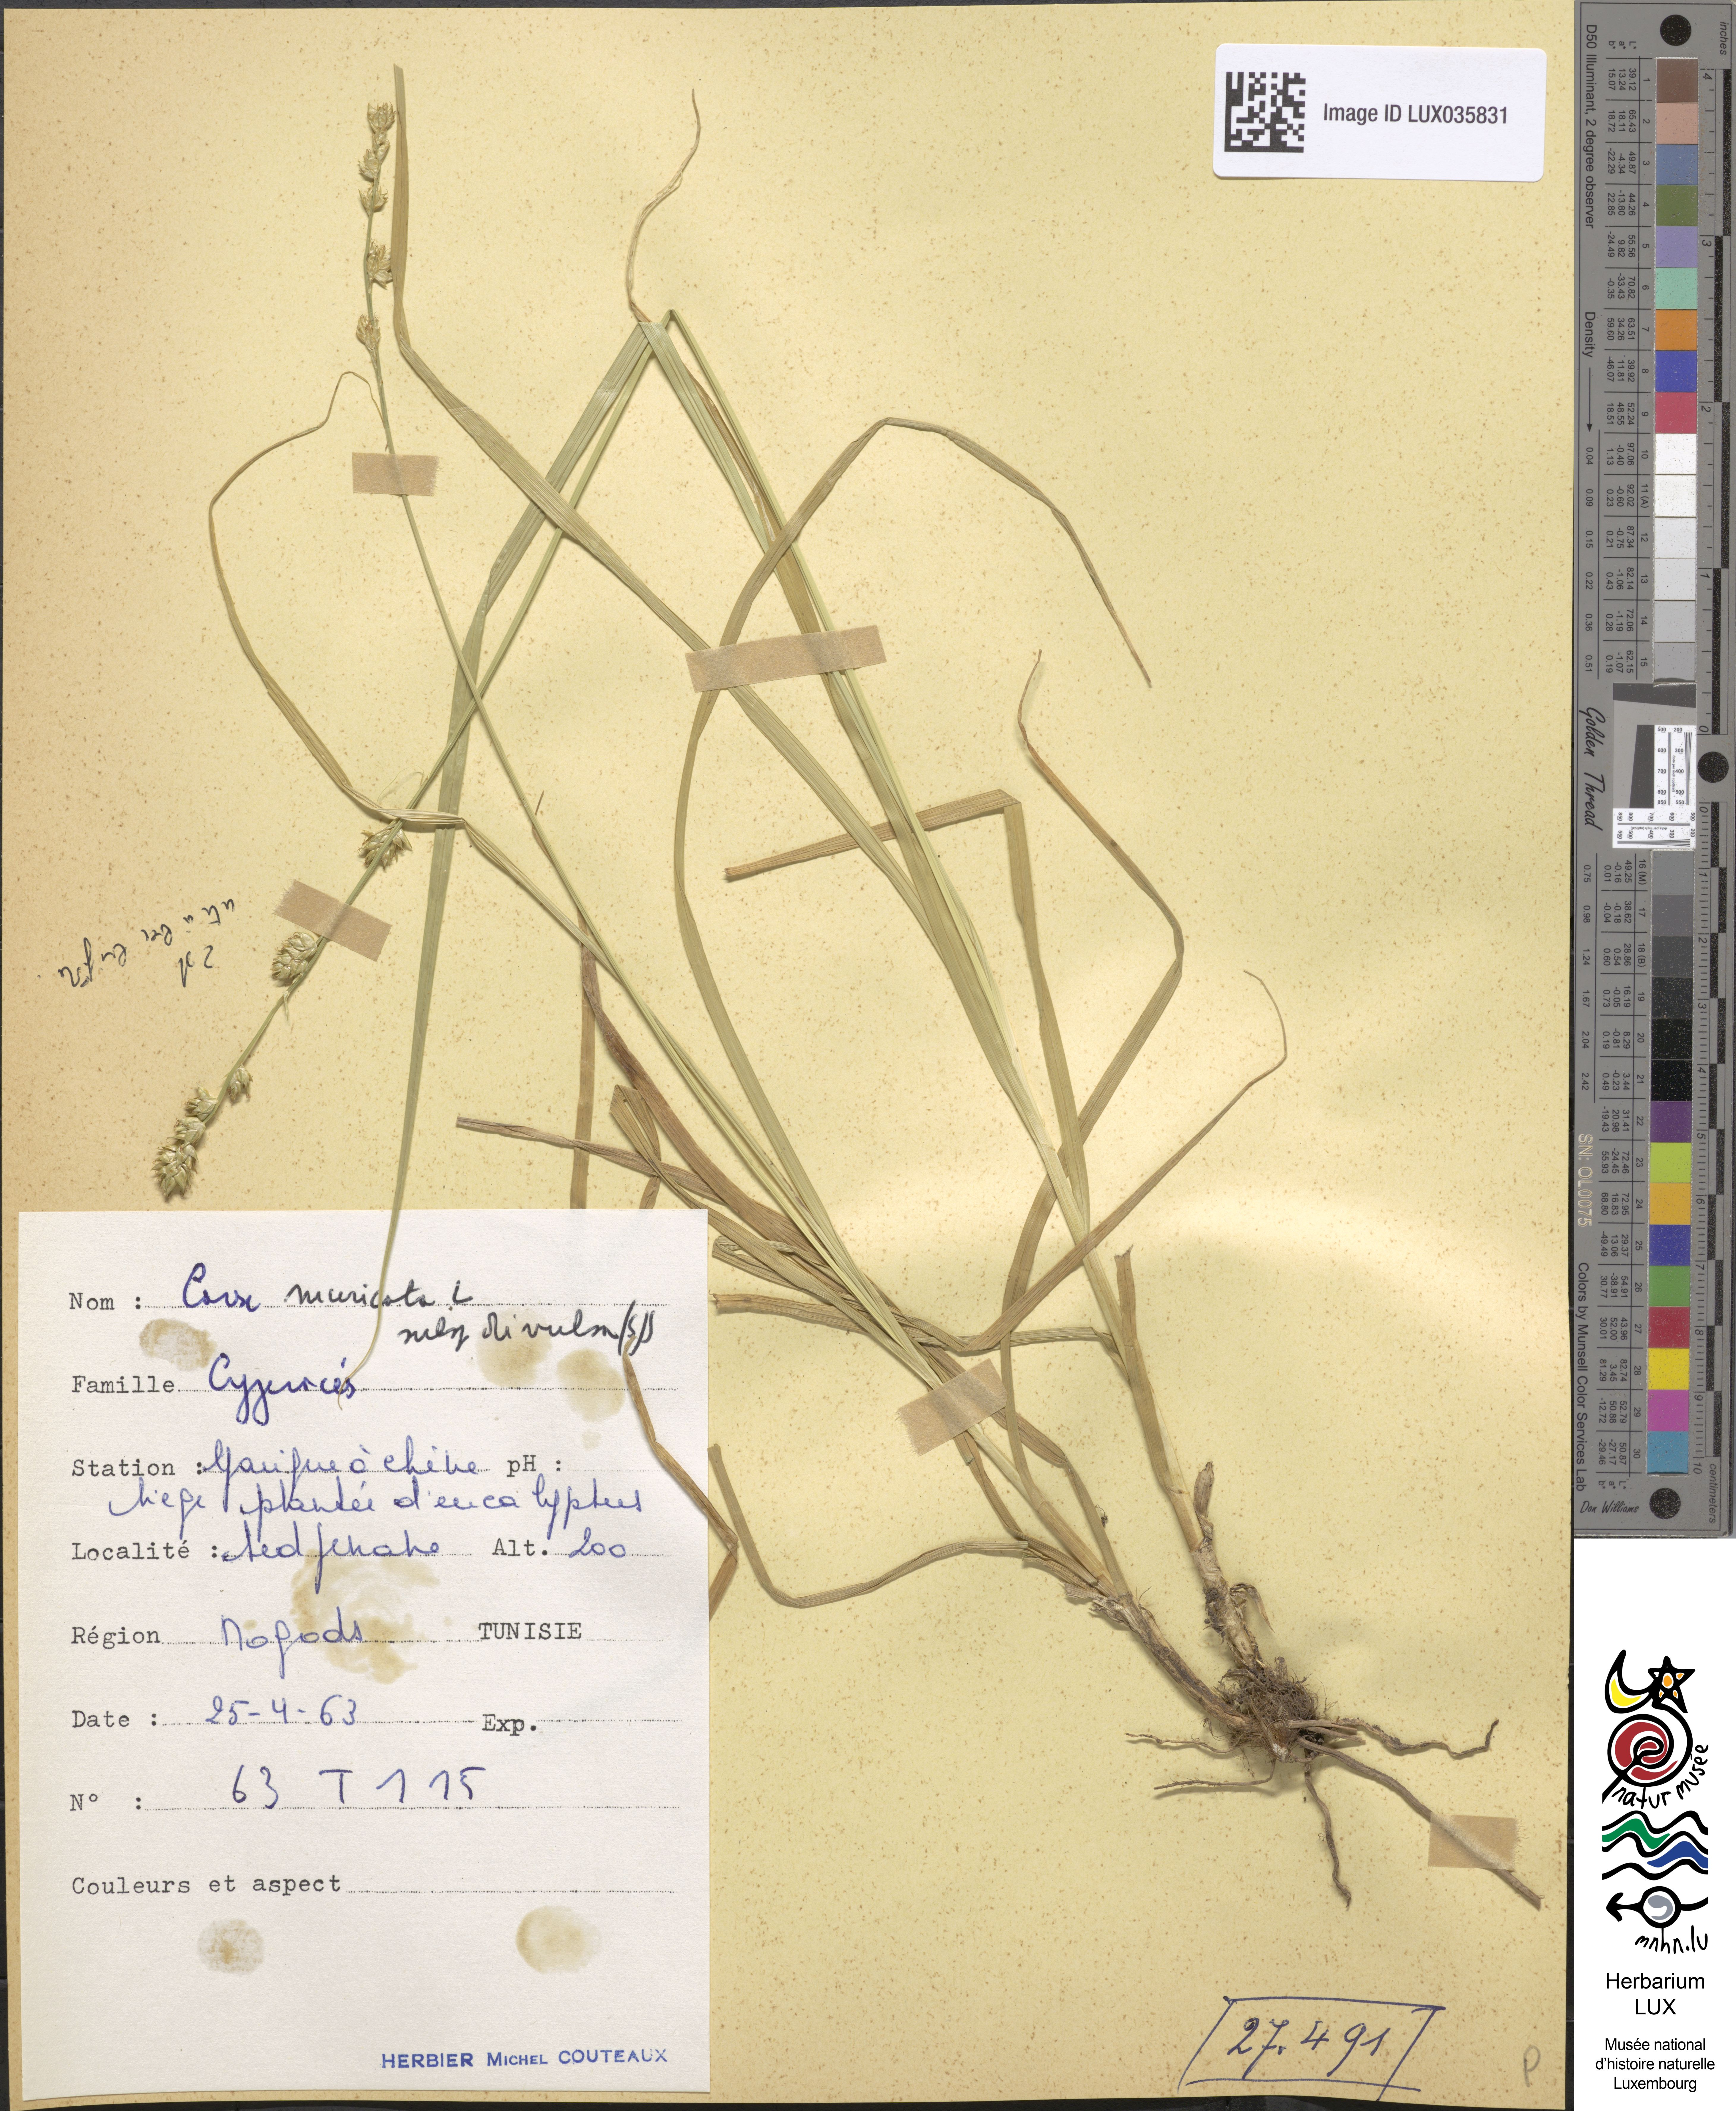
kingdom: Plantae
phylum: Tracheophyta
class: Liliopsida
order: Poales
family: Cyperaceae
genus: Carex
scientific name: Carex divulsa
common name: Grassland sedge
